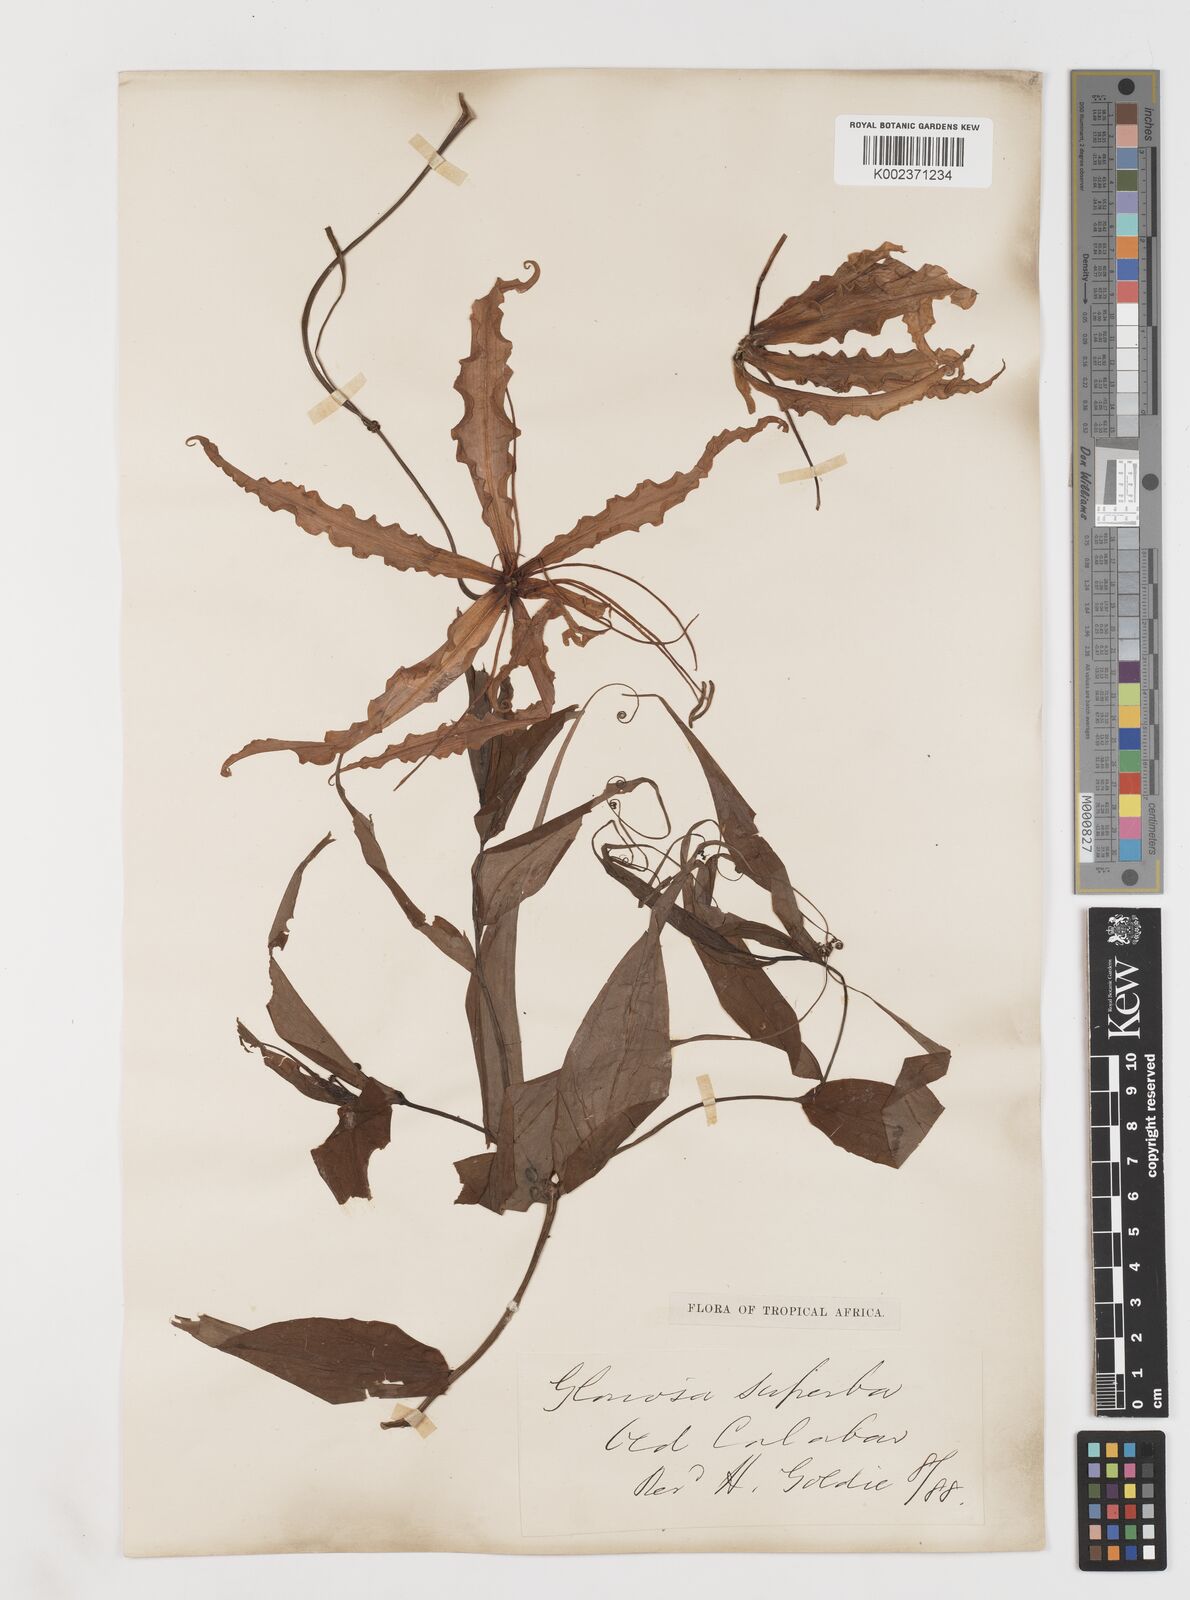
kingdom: Plantae
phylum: Tracheophyta
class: Liliopsida
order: Liliales
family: Colchicaceae
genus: Gloriosa
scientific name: Gloriosa superba
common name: Flame lily
